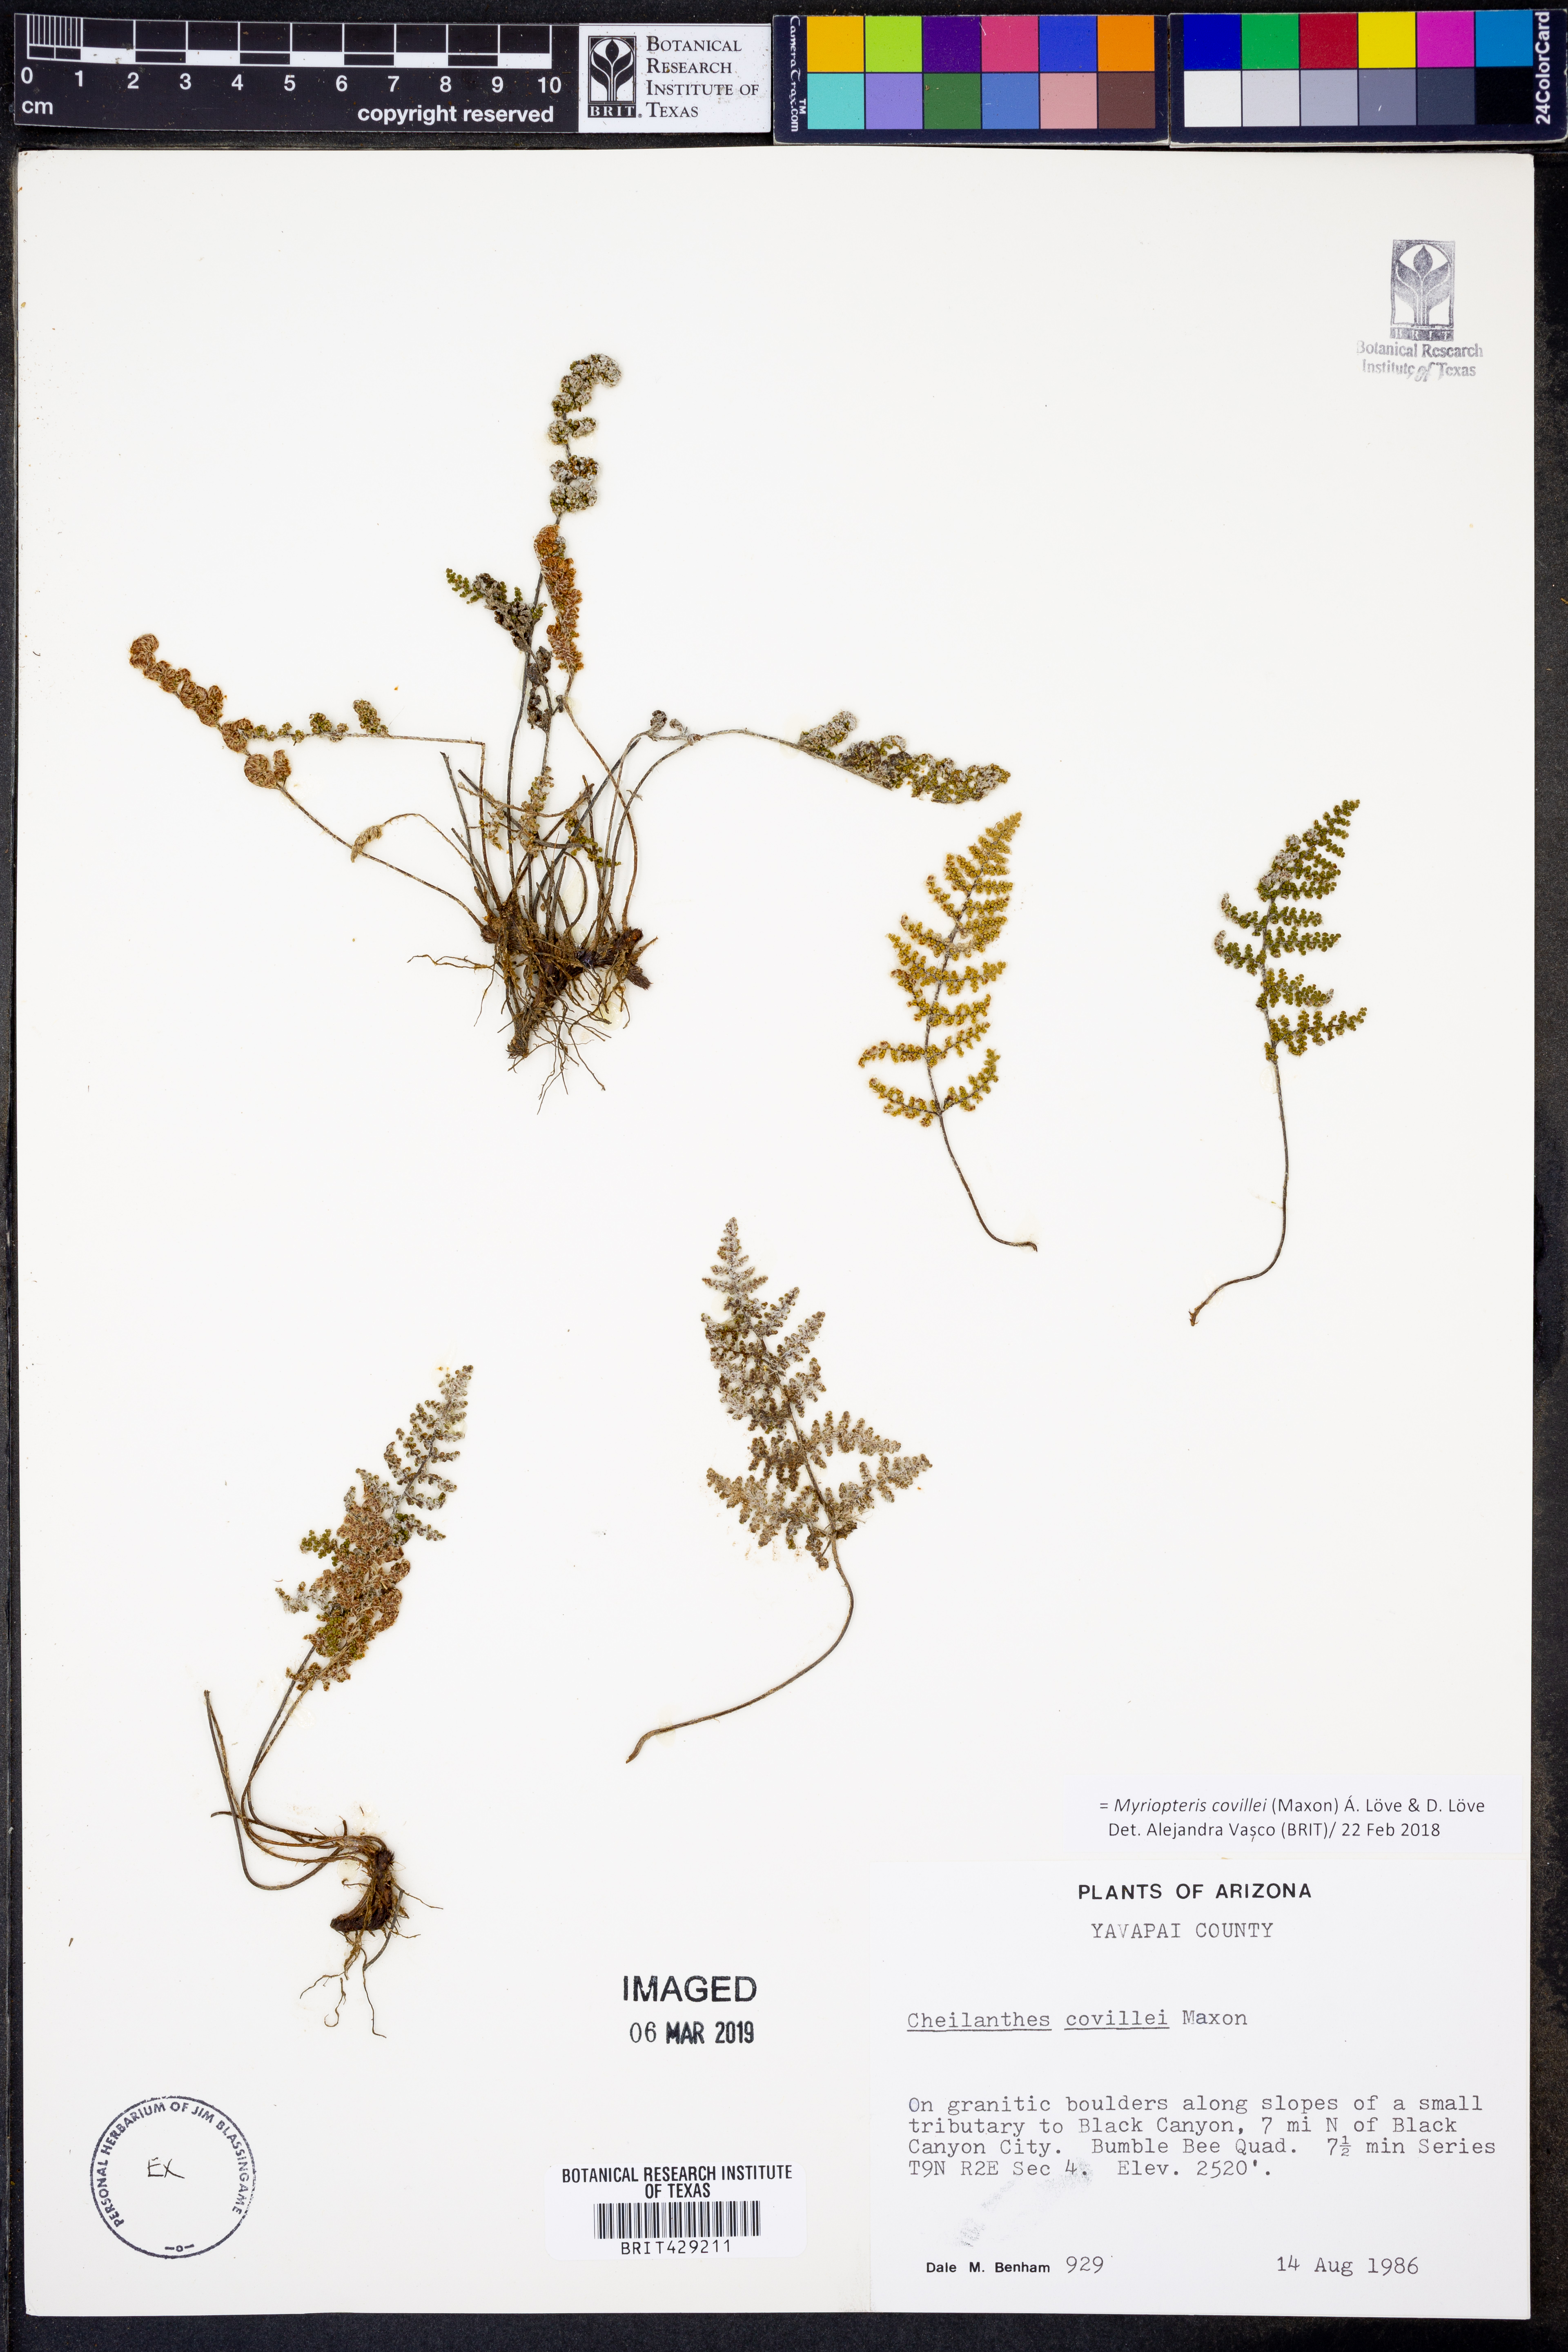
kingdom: Plantae
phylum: Tracheophyta
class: Polypodiopsida
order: Polypodiales
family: Pteridaceae
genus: Myriopteris
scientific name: Myriopteris covillei
